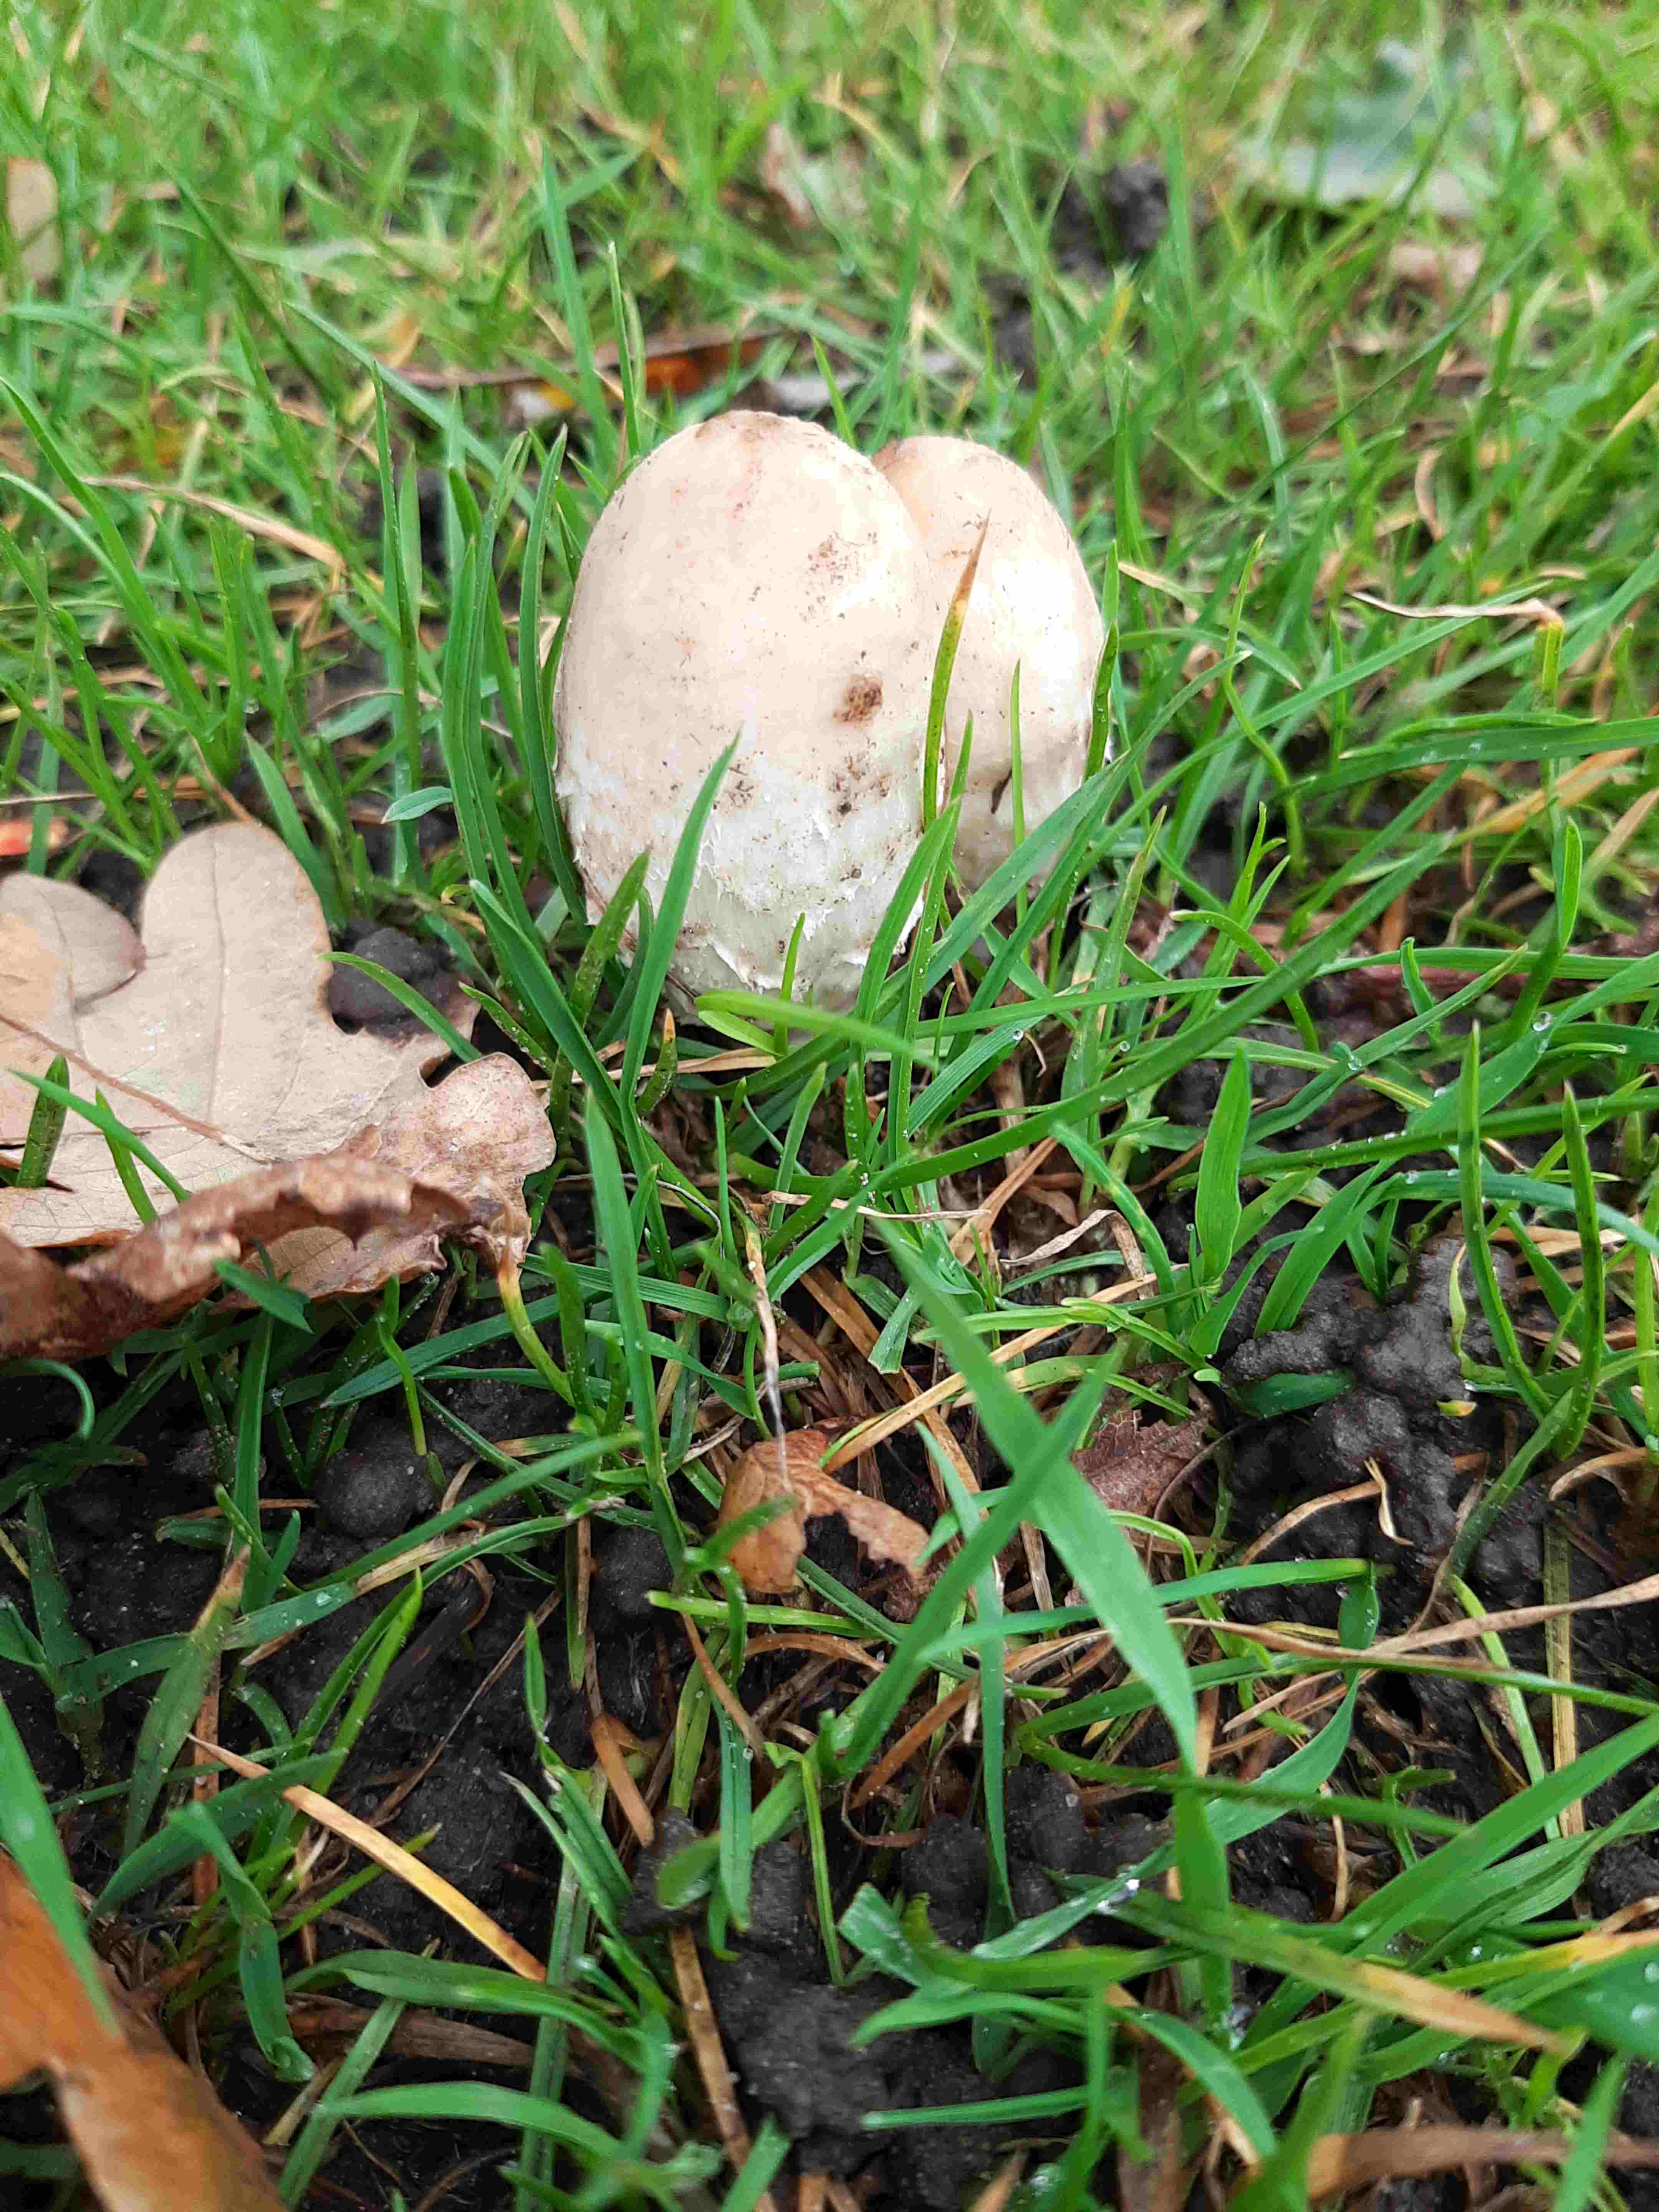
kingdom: Fungi
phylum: Basidiomycota
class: Agaricomycetes
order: Agaricales
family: Agaricaceae
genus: Coprinus
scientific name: Coprinus comatus
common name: stor parykhat
